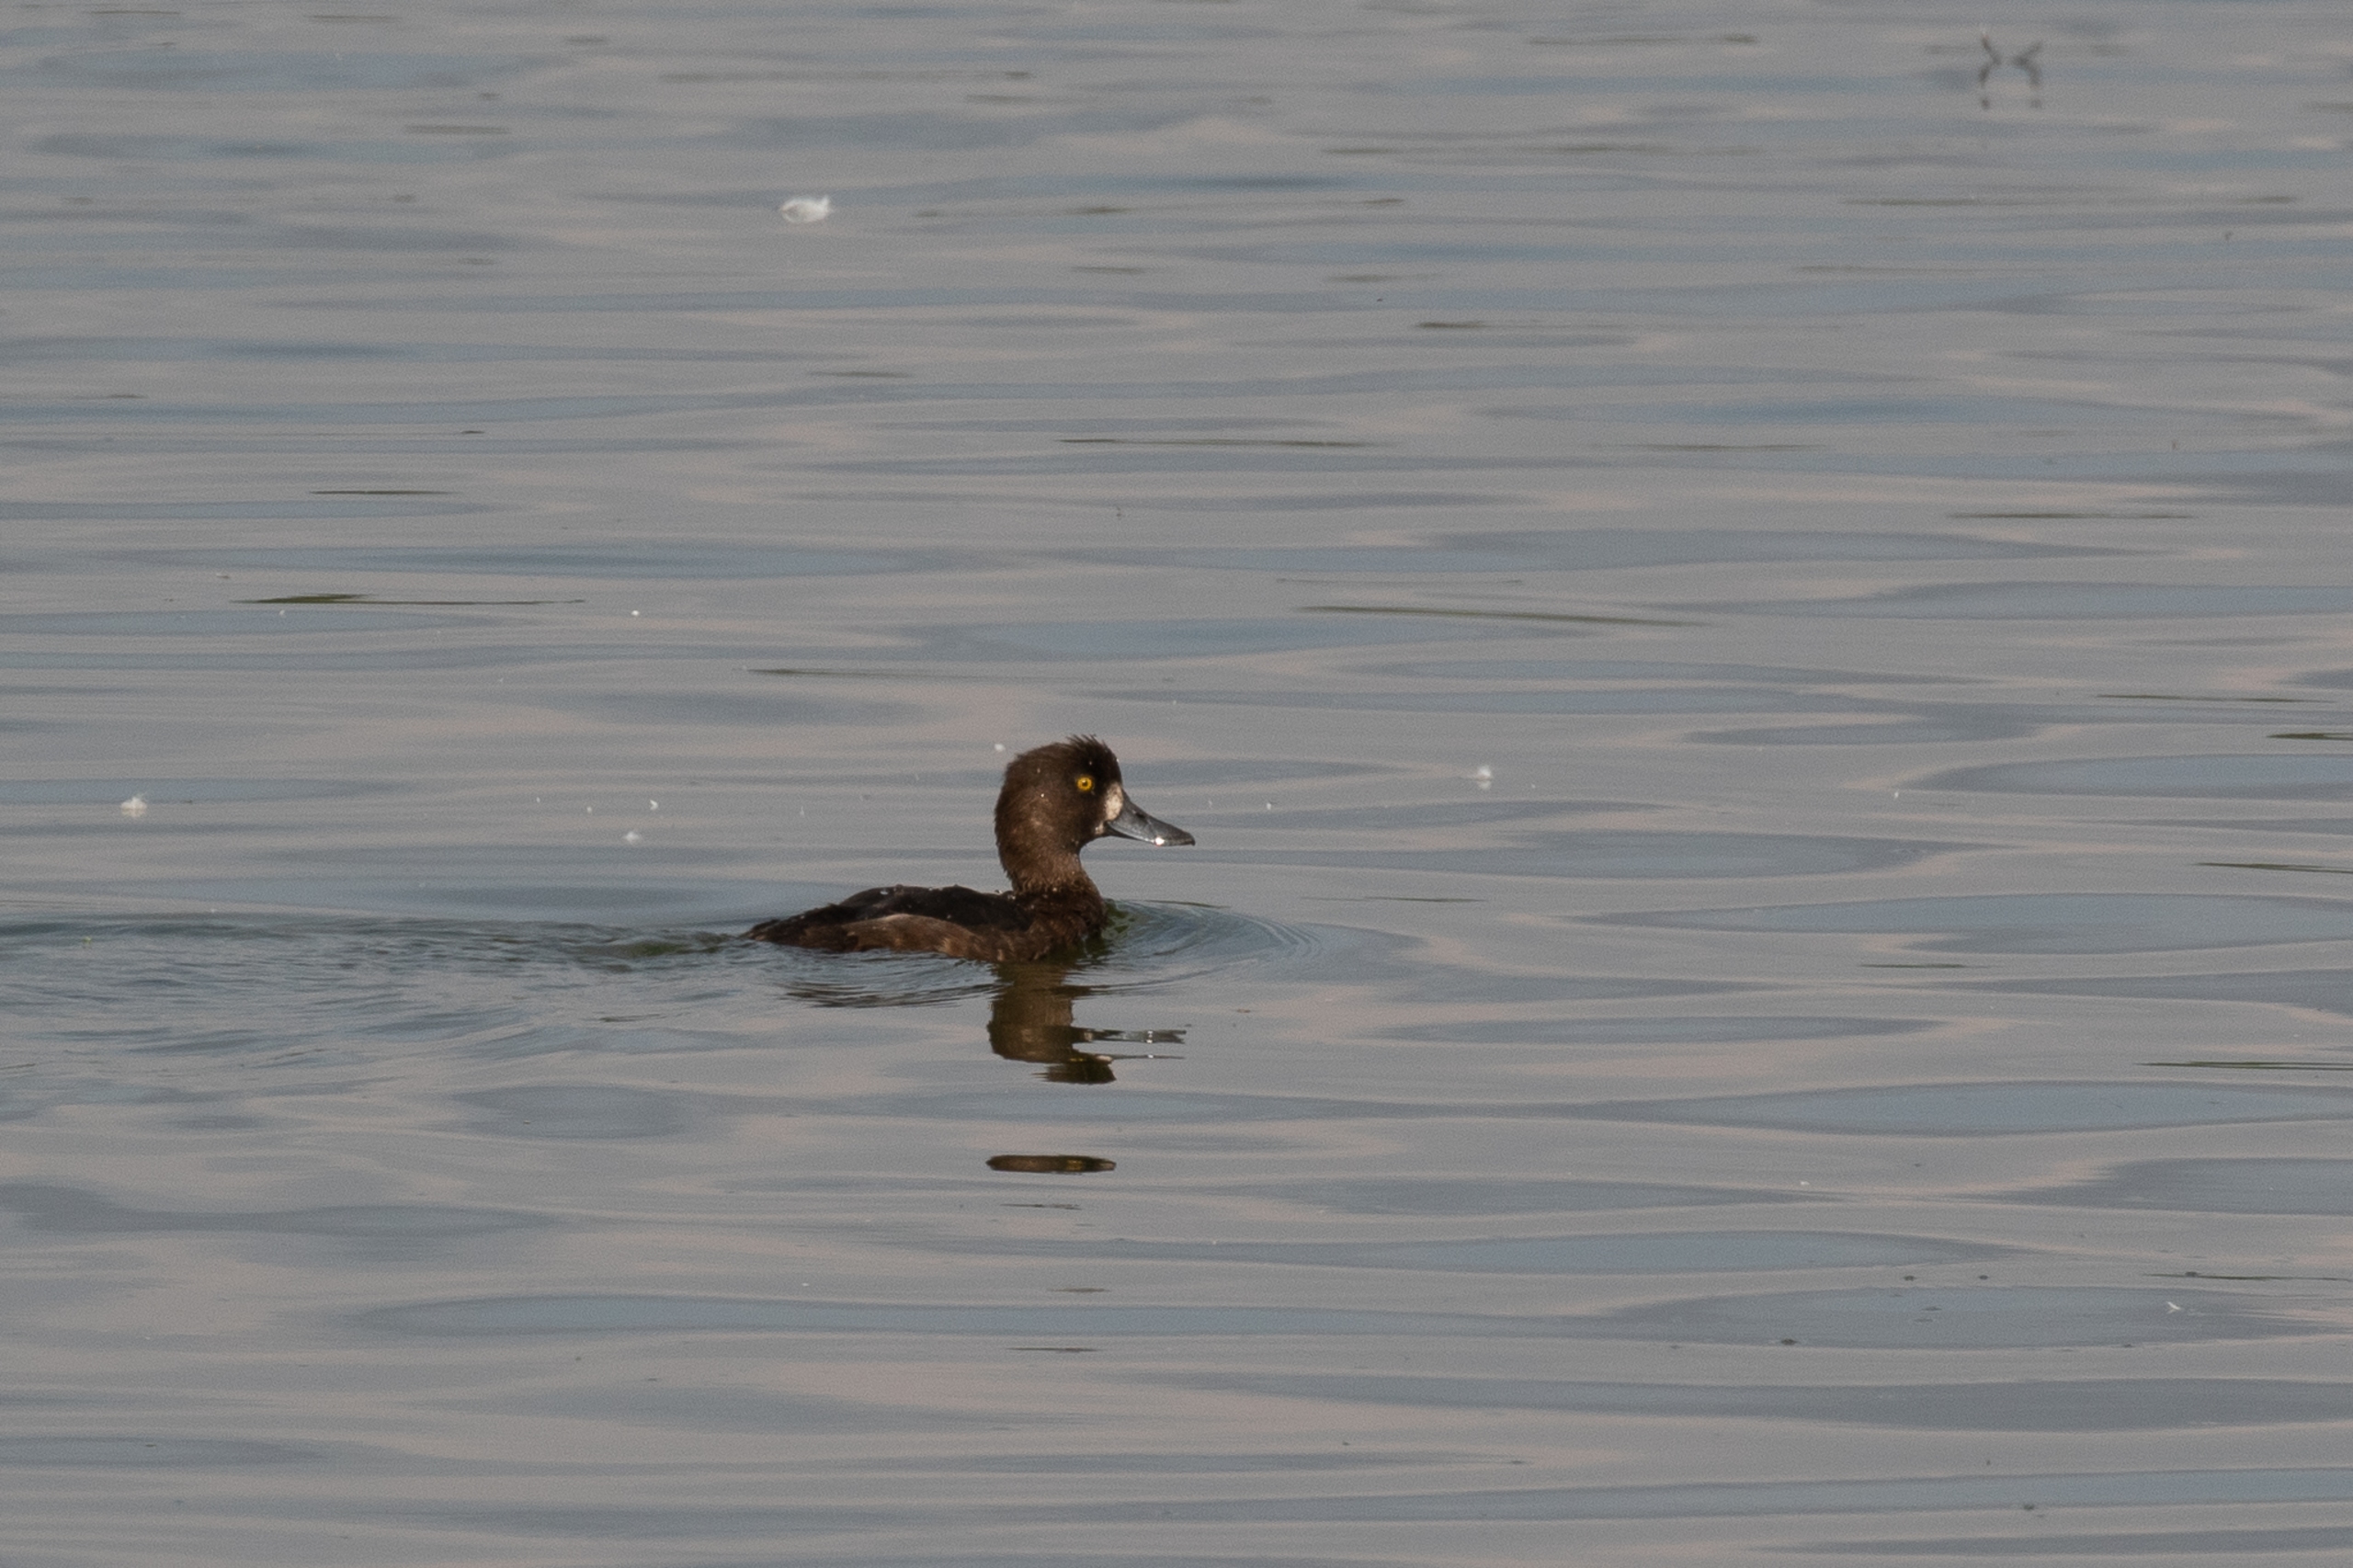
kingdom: Animalia
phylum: Chordata
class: Aves
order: Anseriformes
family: Anatidae
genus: Aythya
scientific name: Aythya fuligula
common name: Troldand
